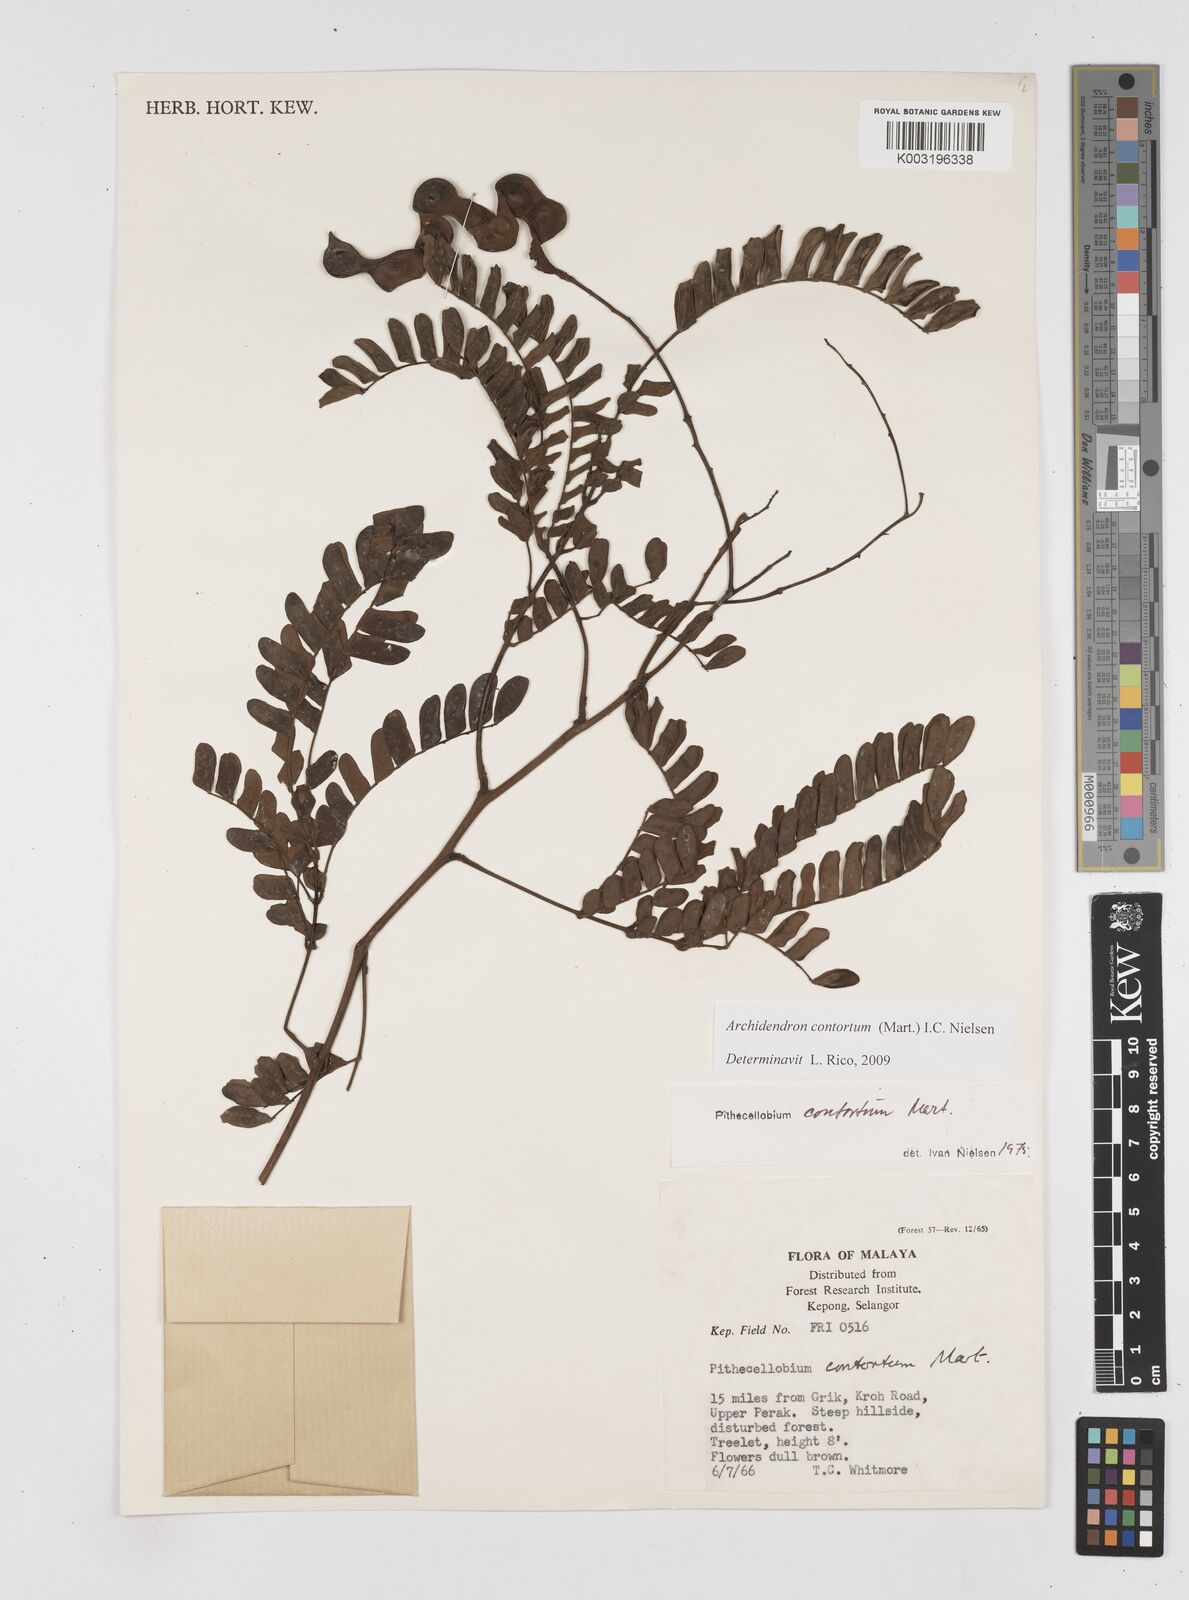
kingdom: Plantae
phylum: Tracheophyta
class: Magnoliopsida
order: Fabales
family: Fabaceae
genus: Archidendron
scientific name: Archidendron contortum
